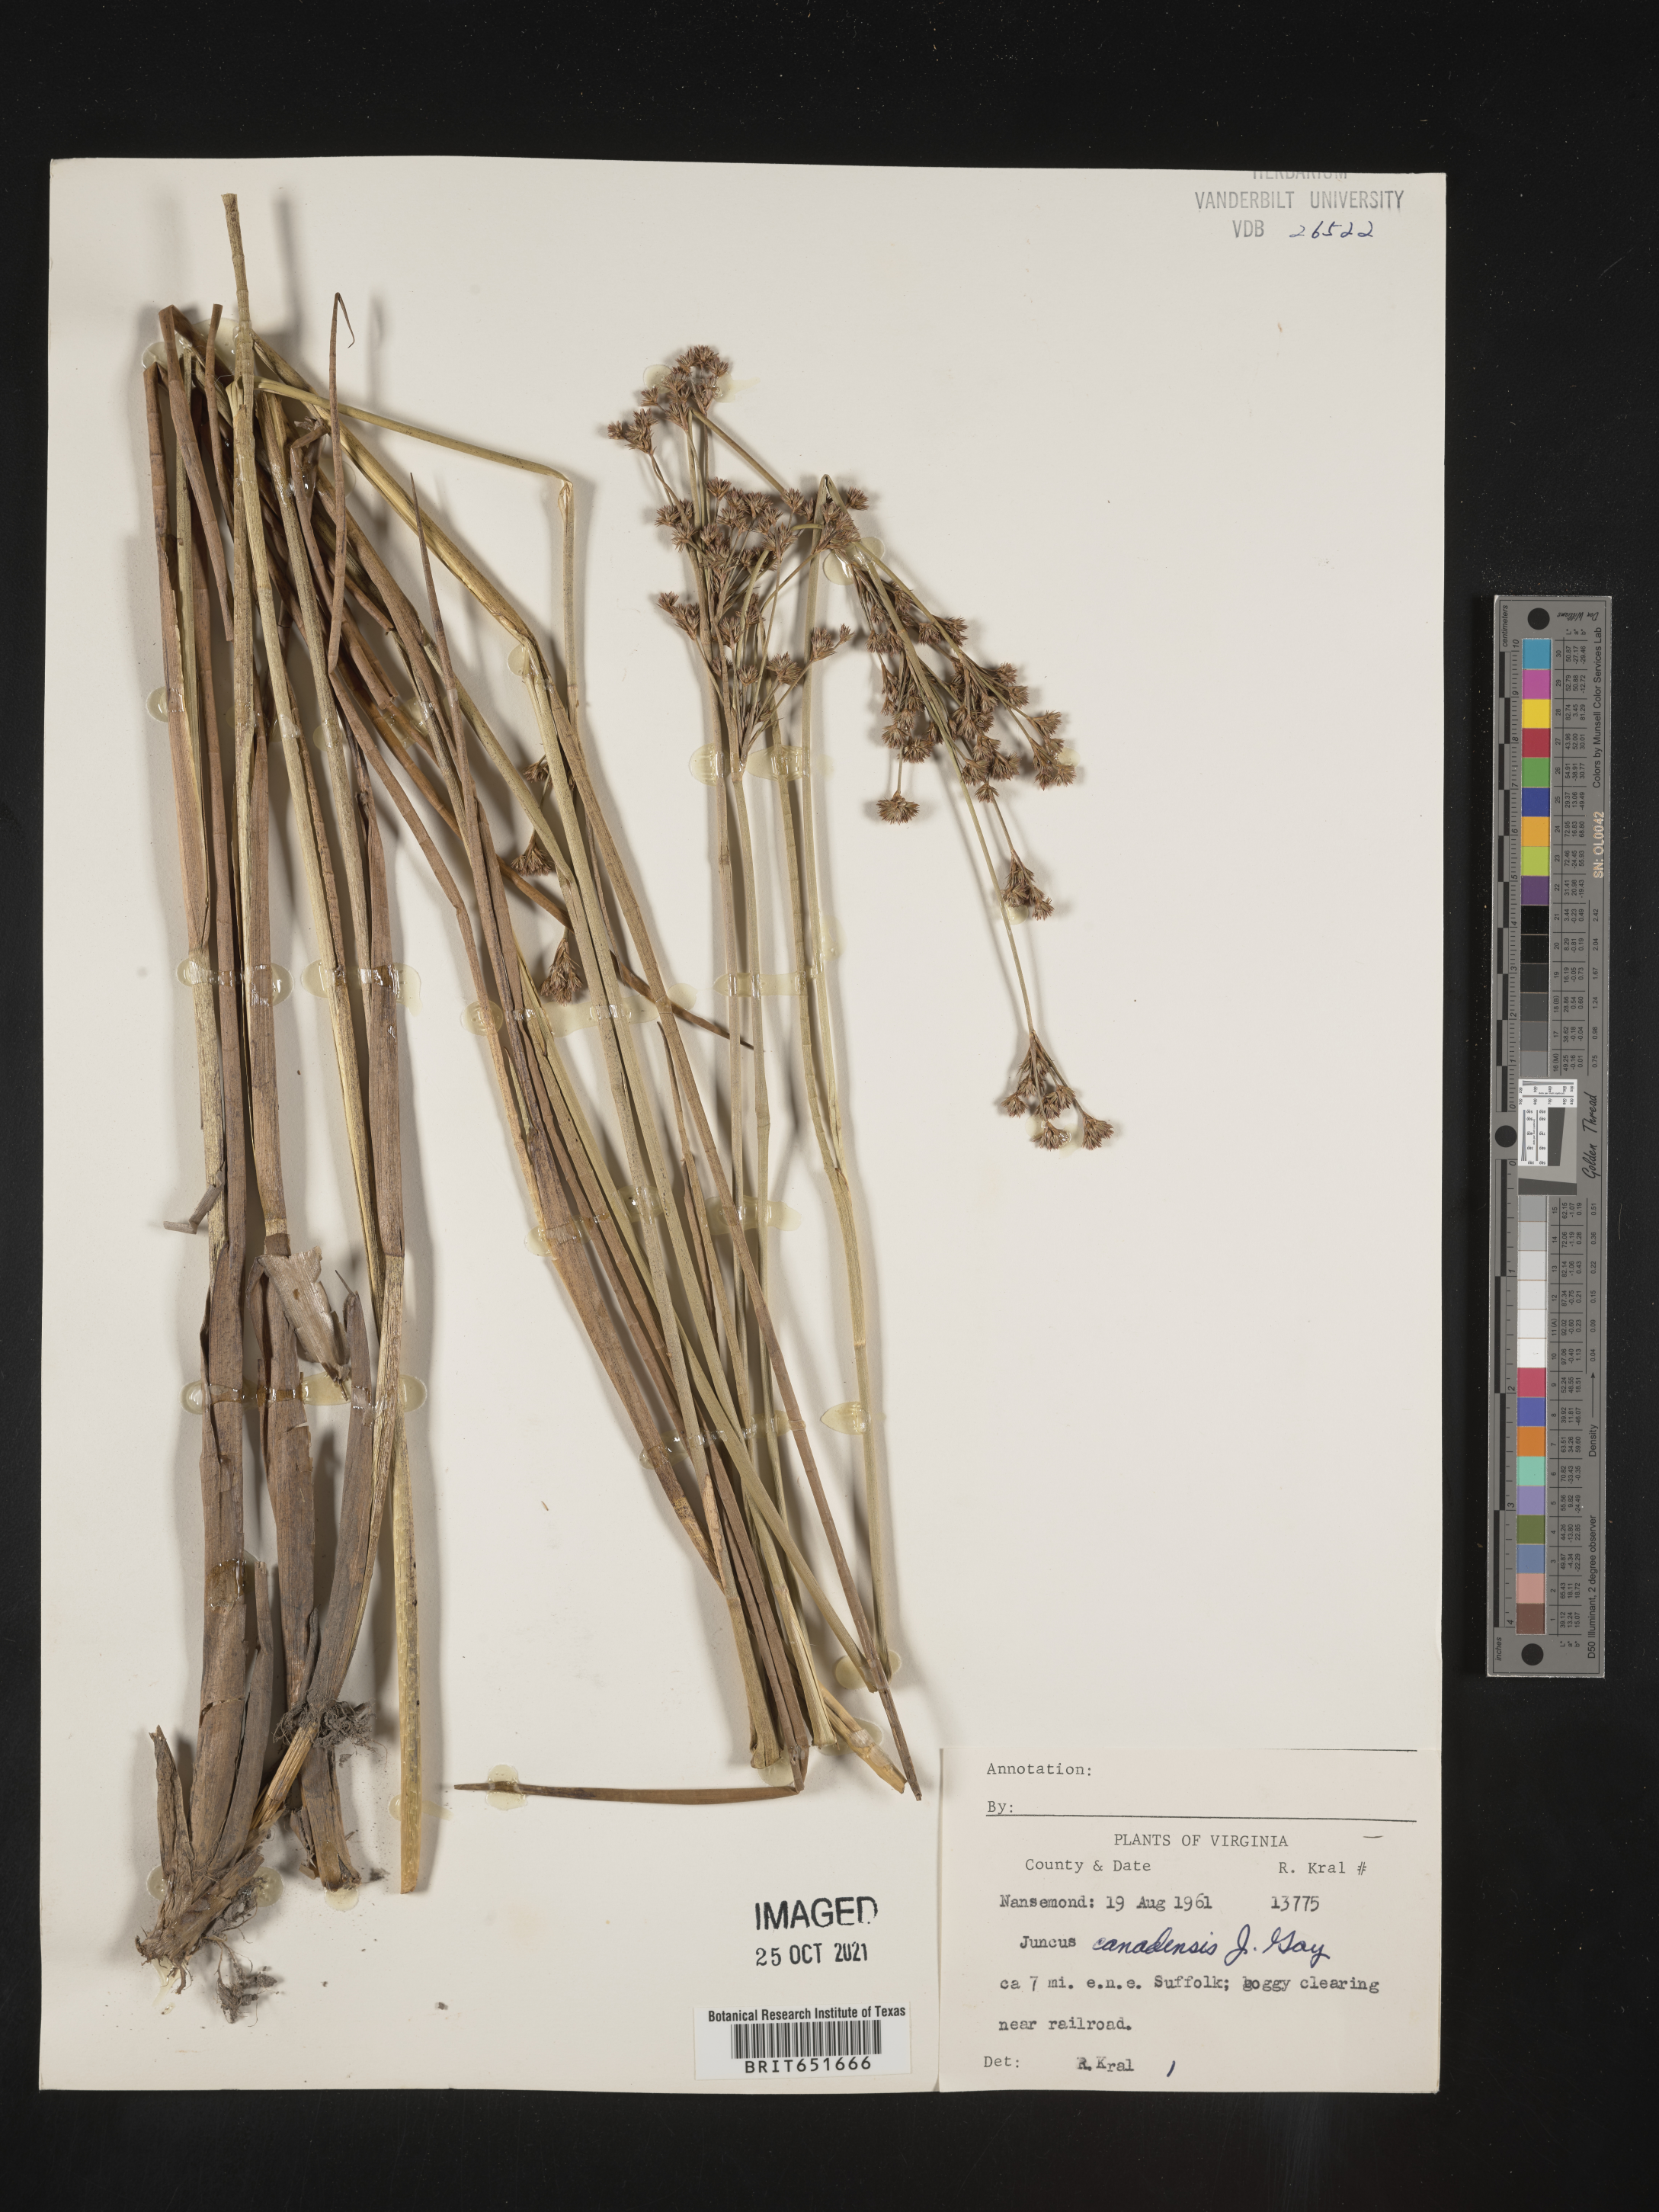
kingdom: Plantae
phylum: Tracheophyta
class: Liliopsida
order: Poales
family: Juncaceae
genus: Juncus
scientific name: Juncus canadensis
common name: Canada rush
